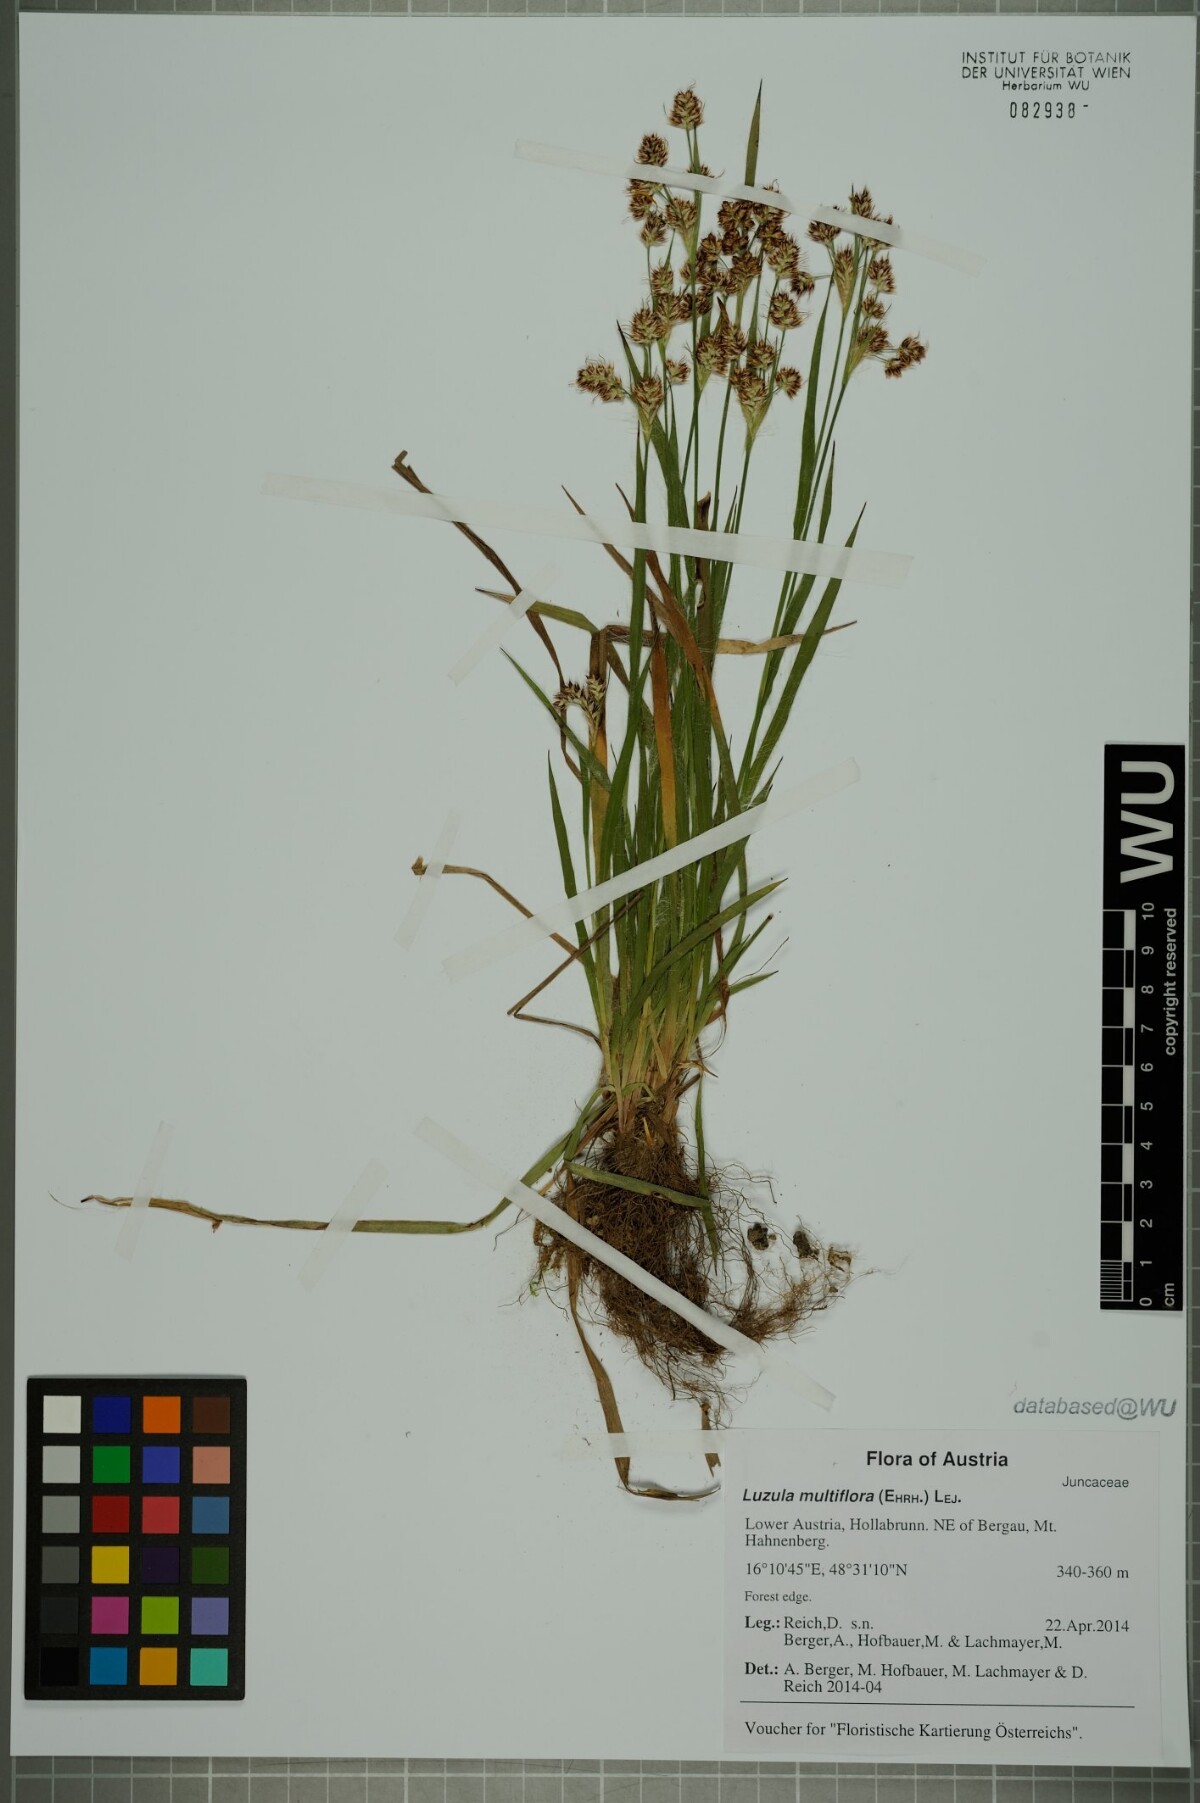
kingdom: Plantae
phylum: Tracheophyta
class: Liliopsida
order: Poales
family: Juncaceae
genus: Luzula
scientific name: Luzula multiflora
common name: Heath wood-rush
